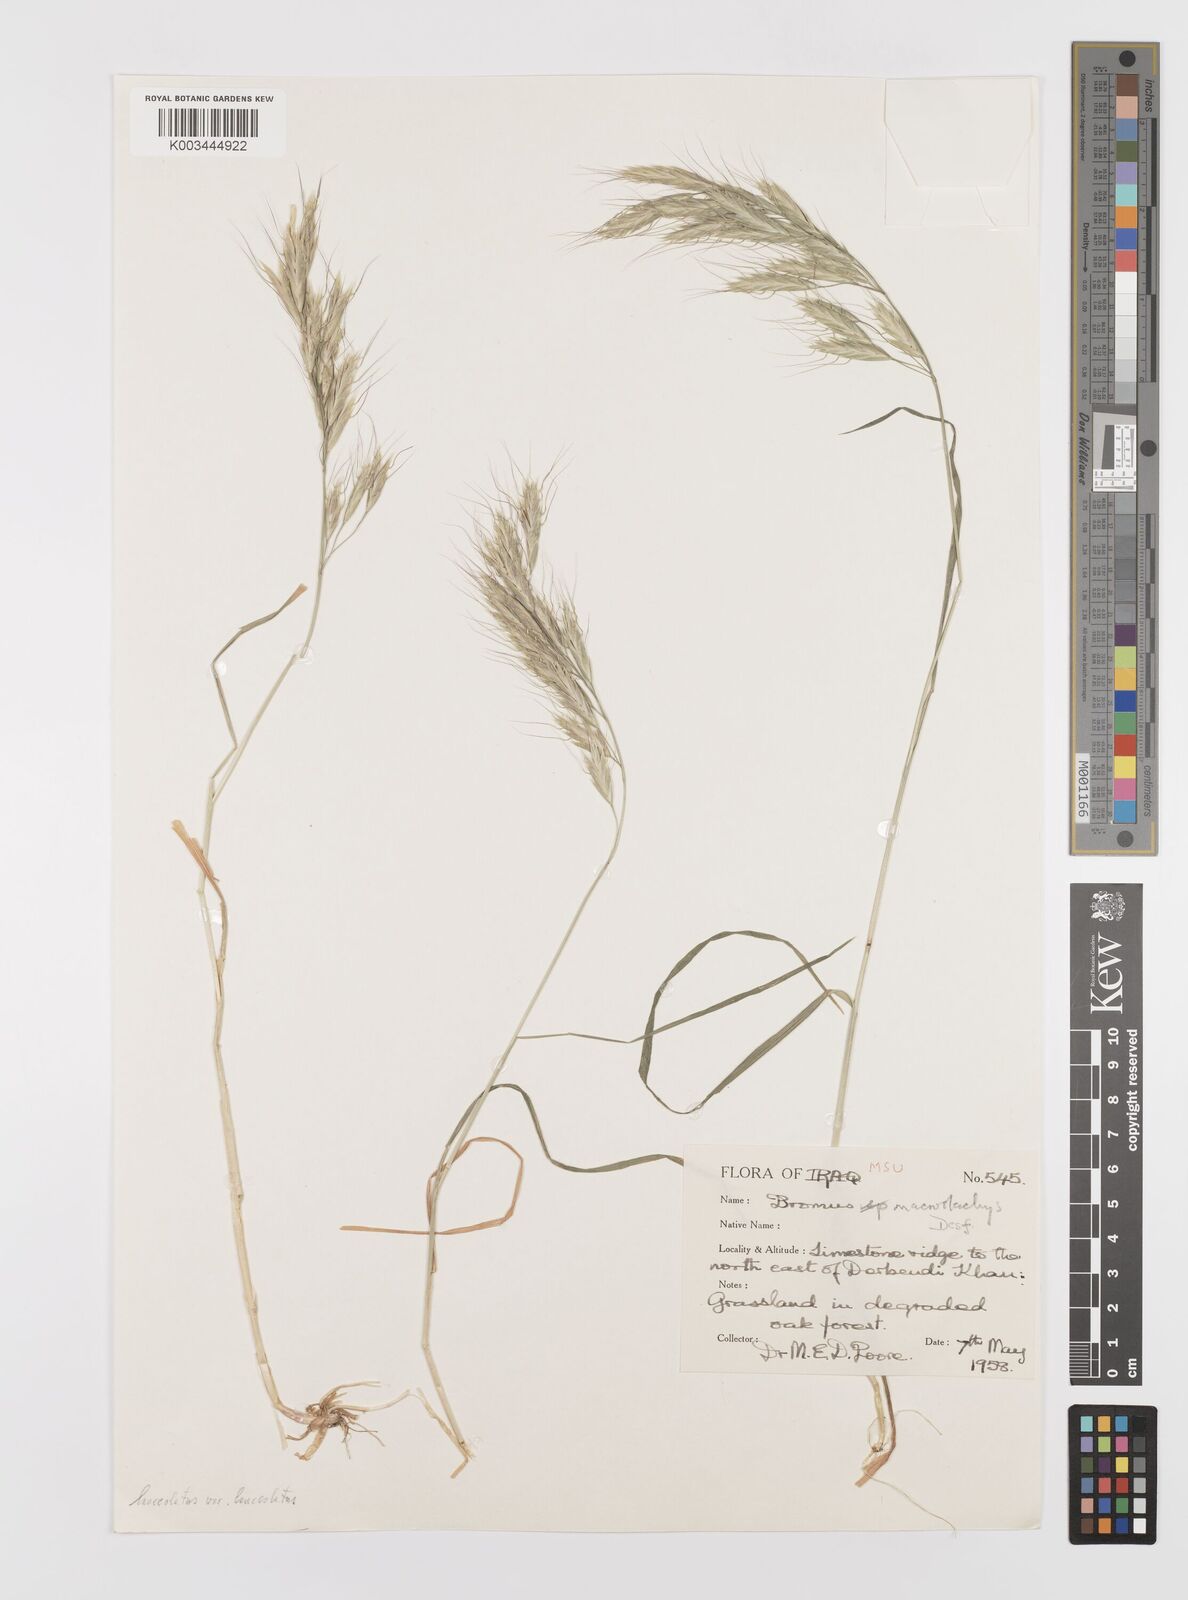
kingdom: Plantae
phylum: Tracheophyta
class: Liliopsida
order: Poales
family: Poaceae
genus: Bromus
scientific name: Bromus lanceolatus
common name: Mediterranean brome
